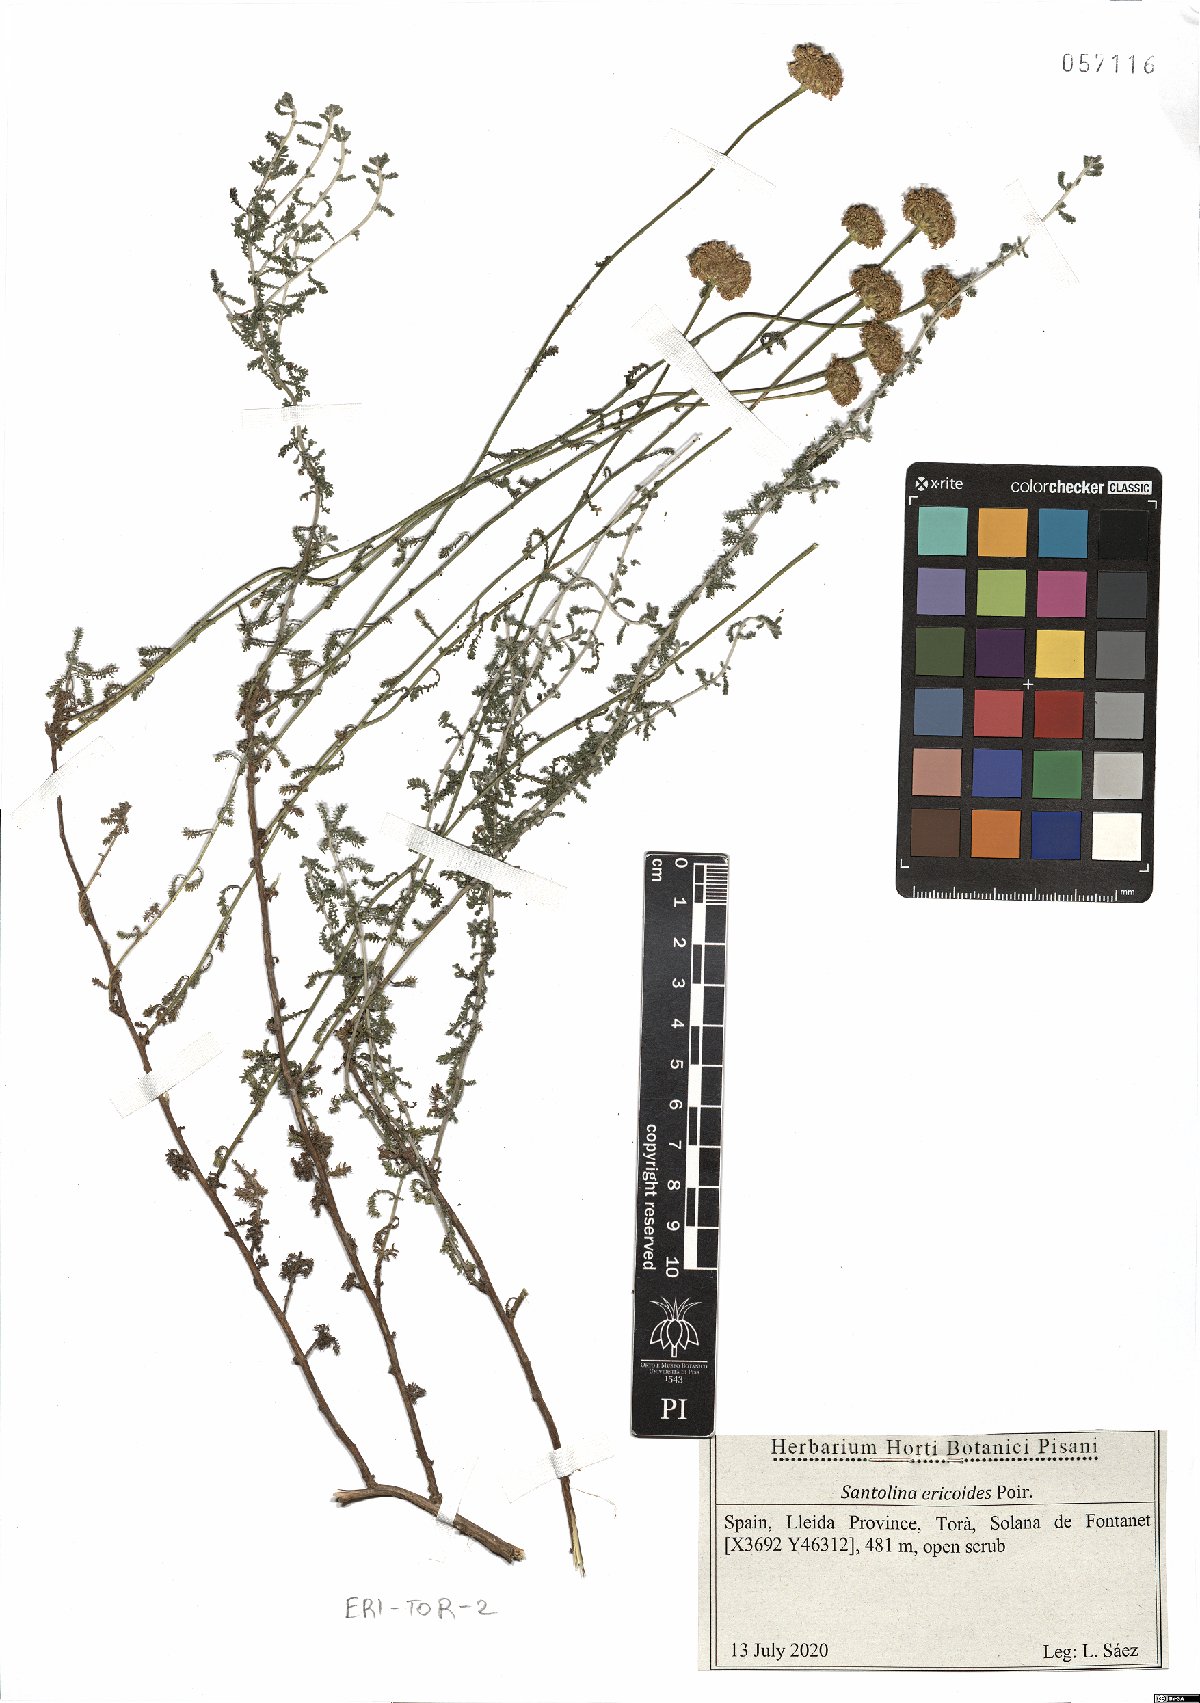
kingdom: Plantae
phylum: Tracheophyta
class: Magnoliopsida
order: Asterales
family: Asteraceae
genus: Santolina
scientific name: Santolina ericoides
